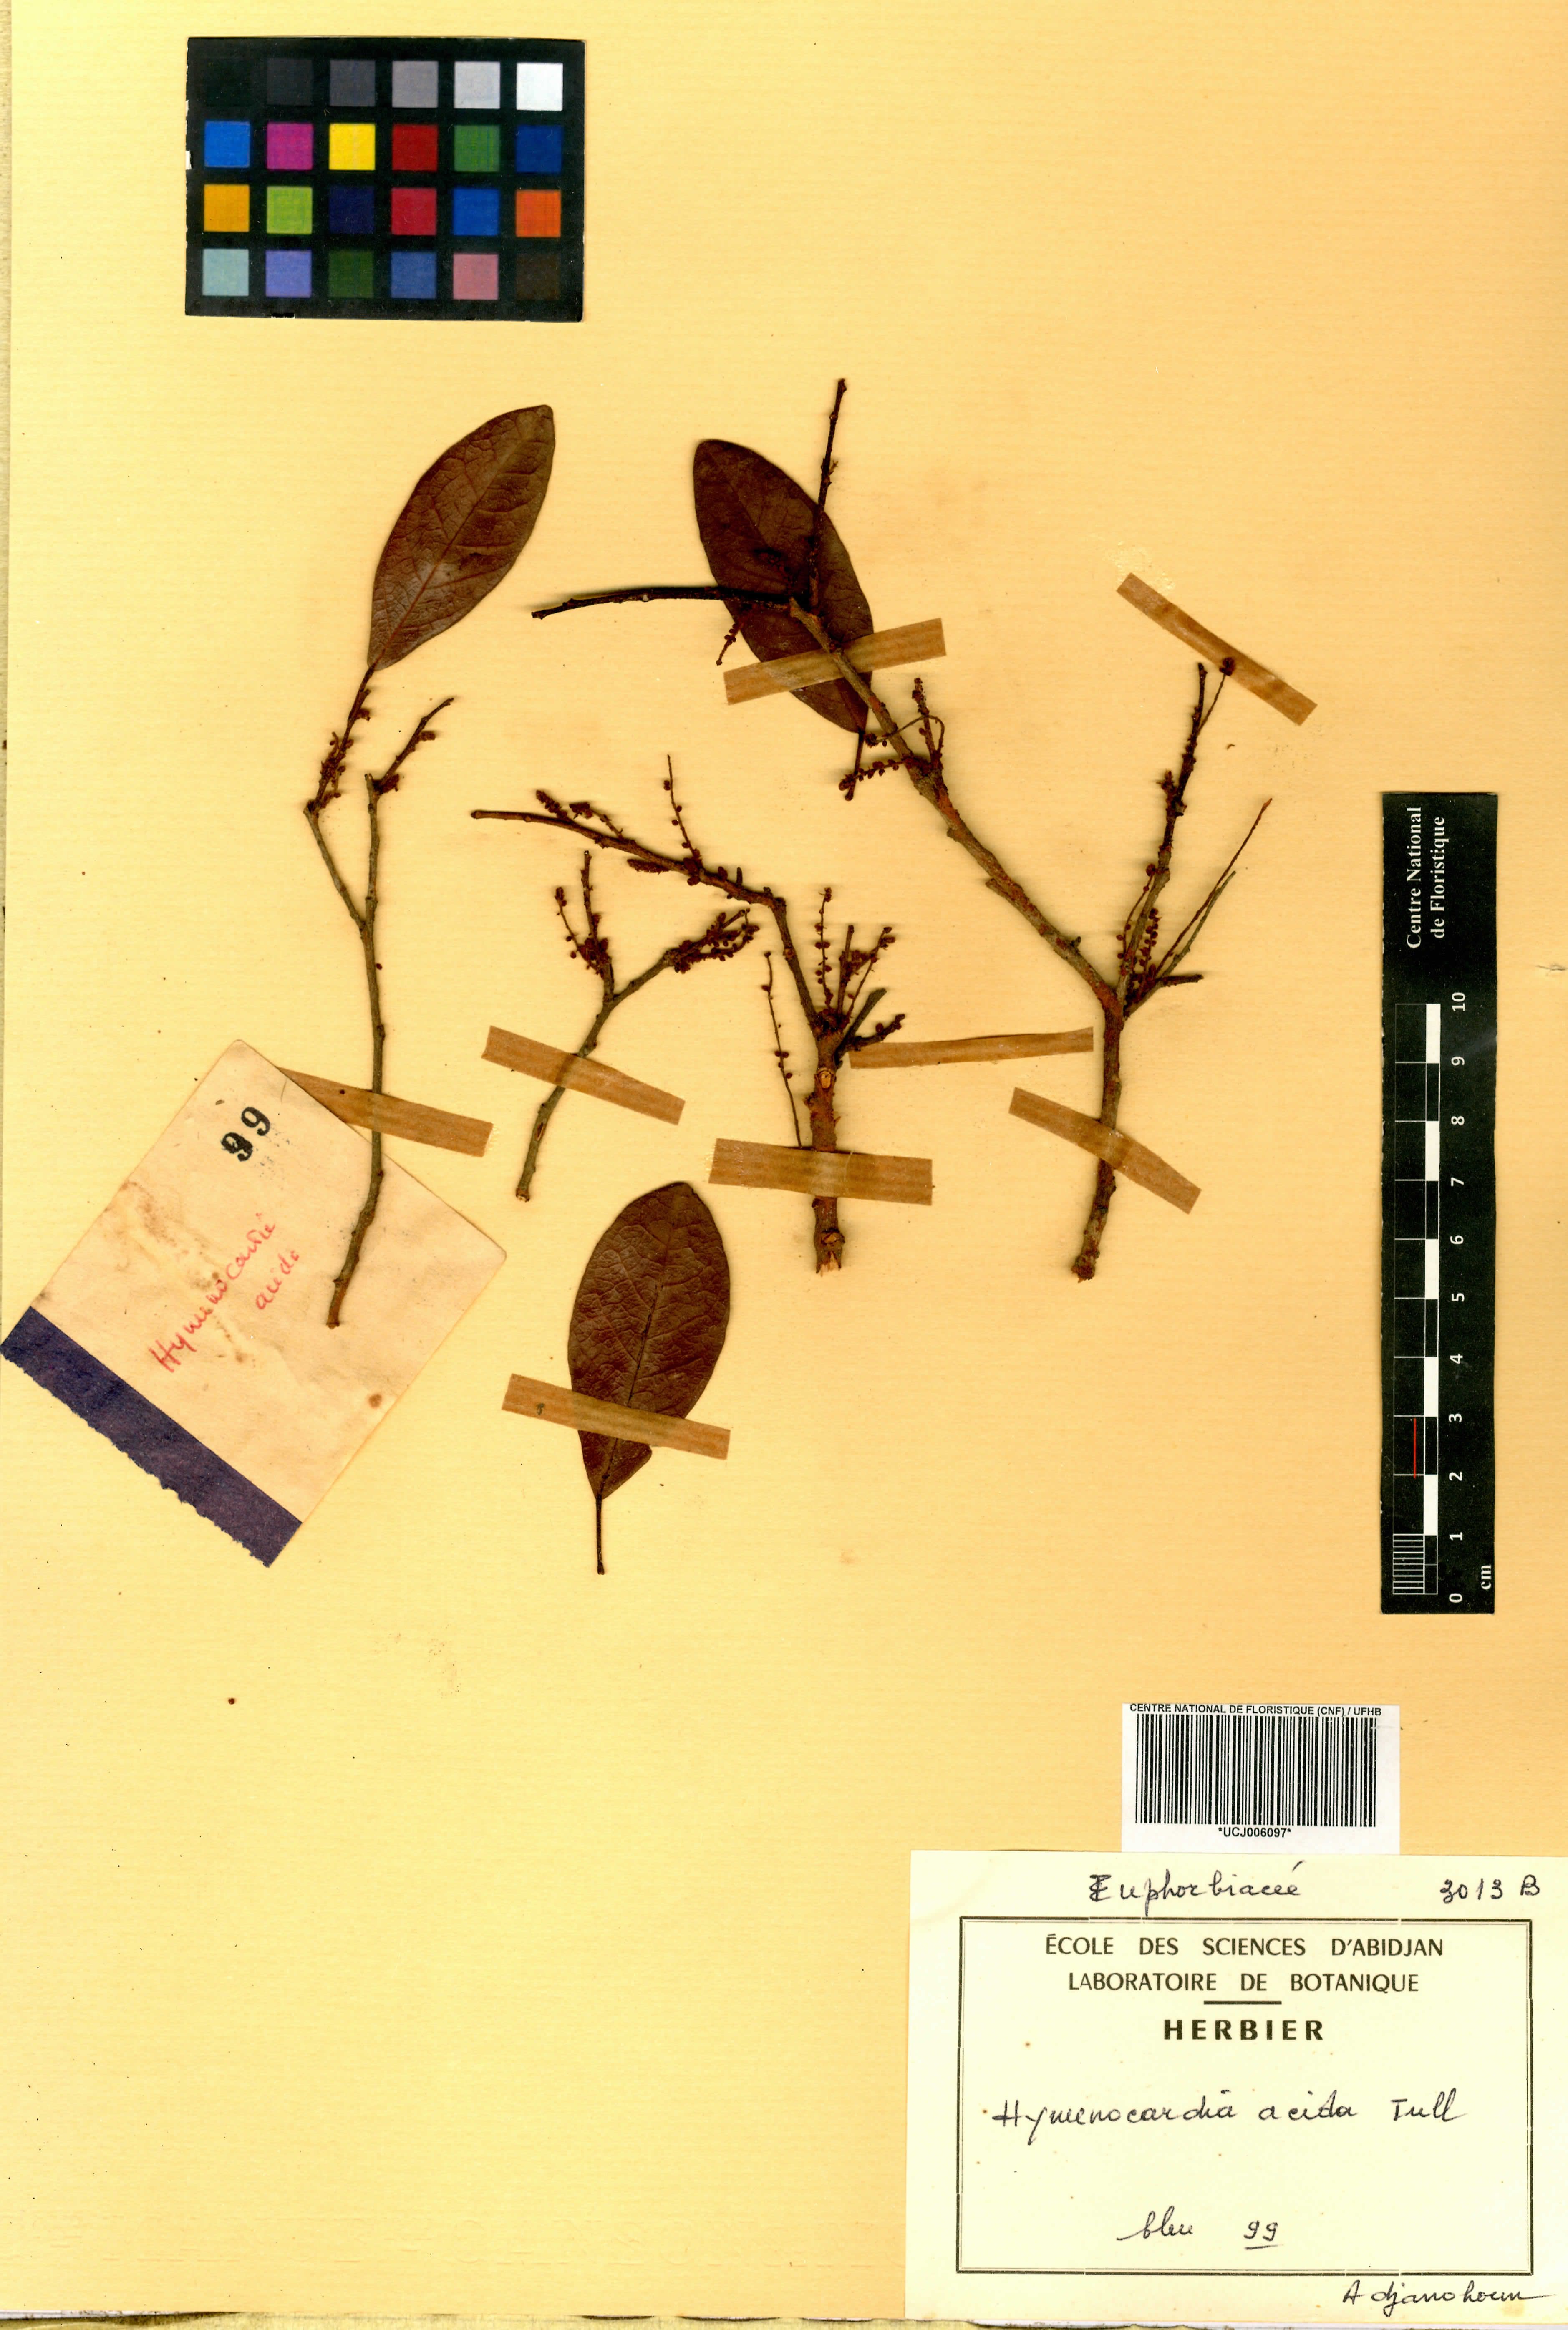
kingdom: Plantae
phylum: Tracheophyta
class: Magnoliopsida
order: Malpighiales
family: Phyllanthaceae
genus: Hymenocardia
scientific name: Hymenocardia acida
